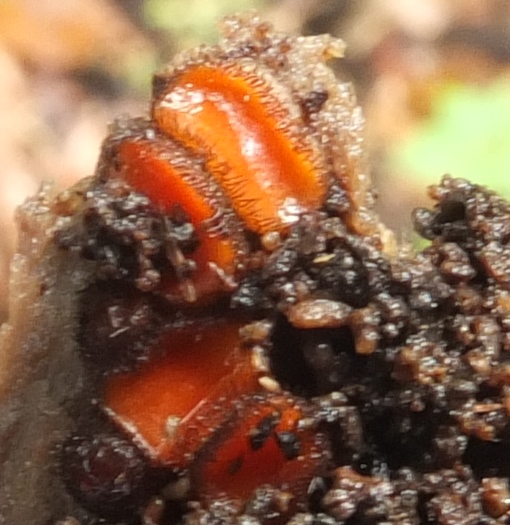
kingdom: Fungi
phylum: Ascomycota
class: Pezizomycetes
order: Pezizales
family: Pyronemataceae
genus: Scutellinia
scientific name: Scutellinia scutellata
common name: frynset skjoldbæger
